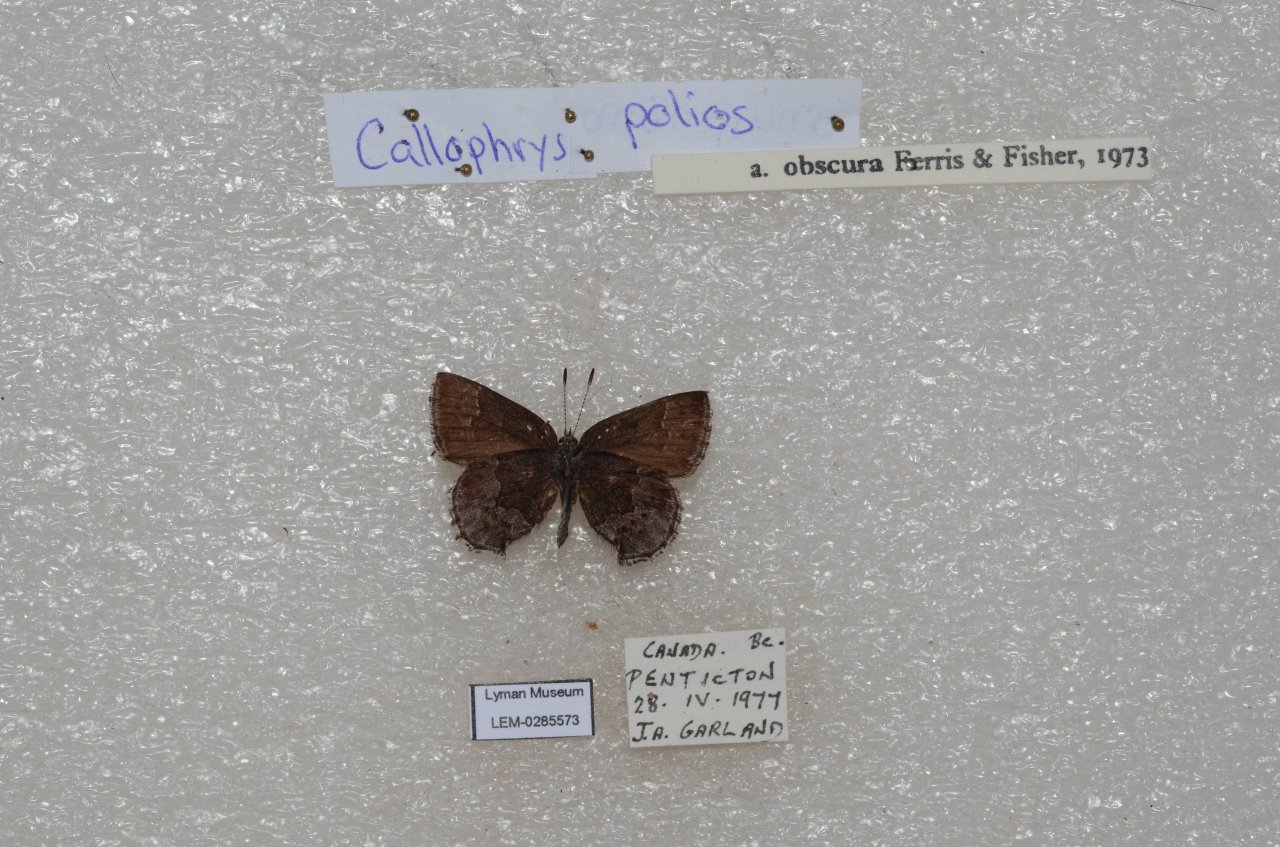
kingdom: Animalia
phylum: Arthropoda
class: Insecta
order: Lepidoptera
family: Lycaenidae
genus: Callophrys
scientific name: Callophrys polios
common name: Hoary Elfin
